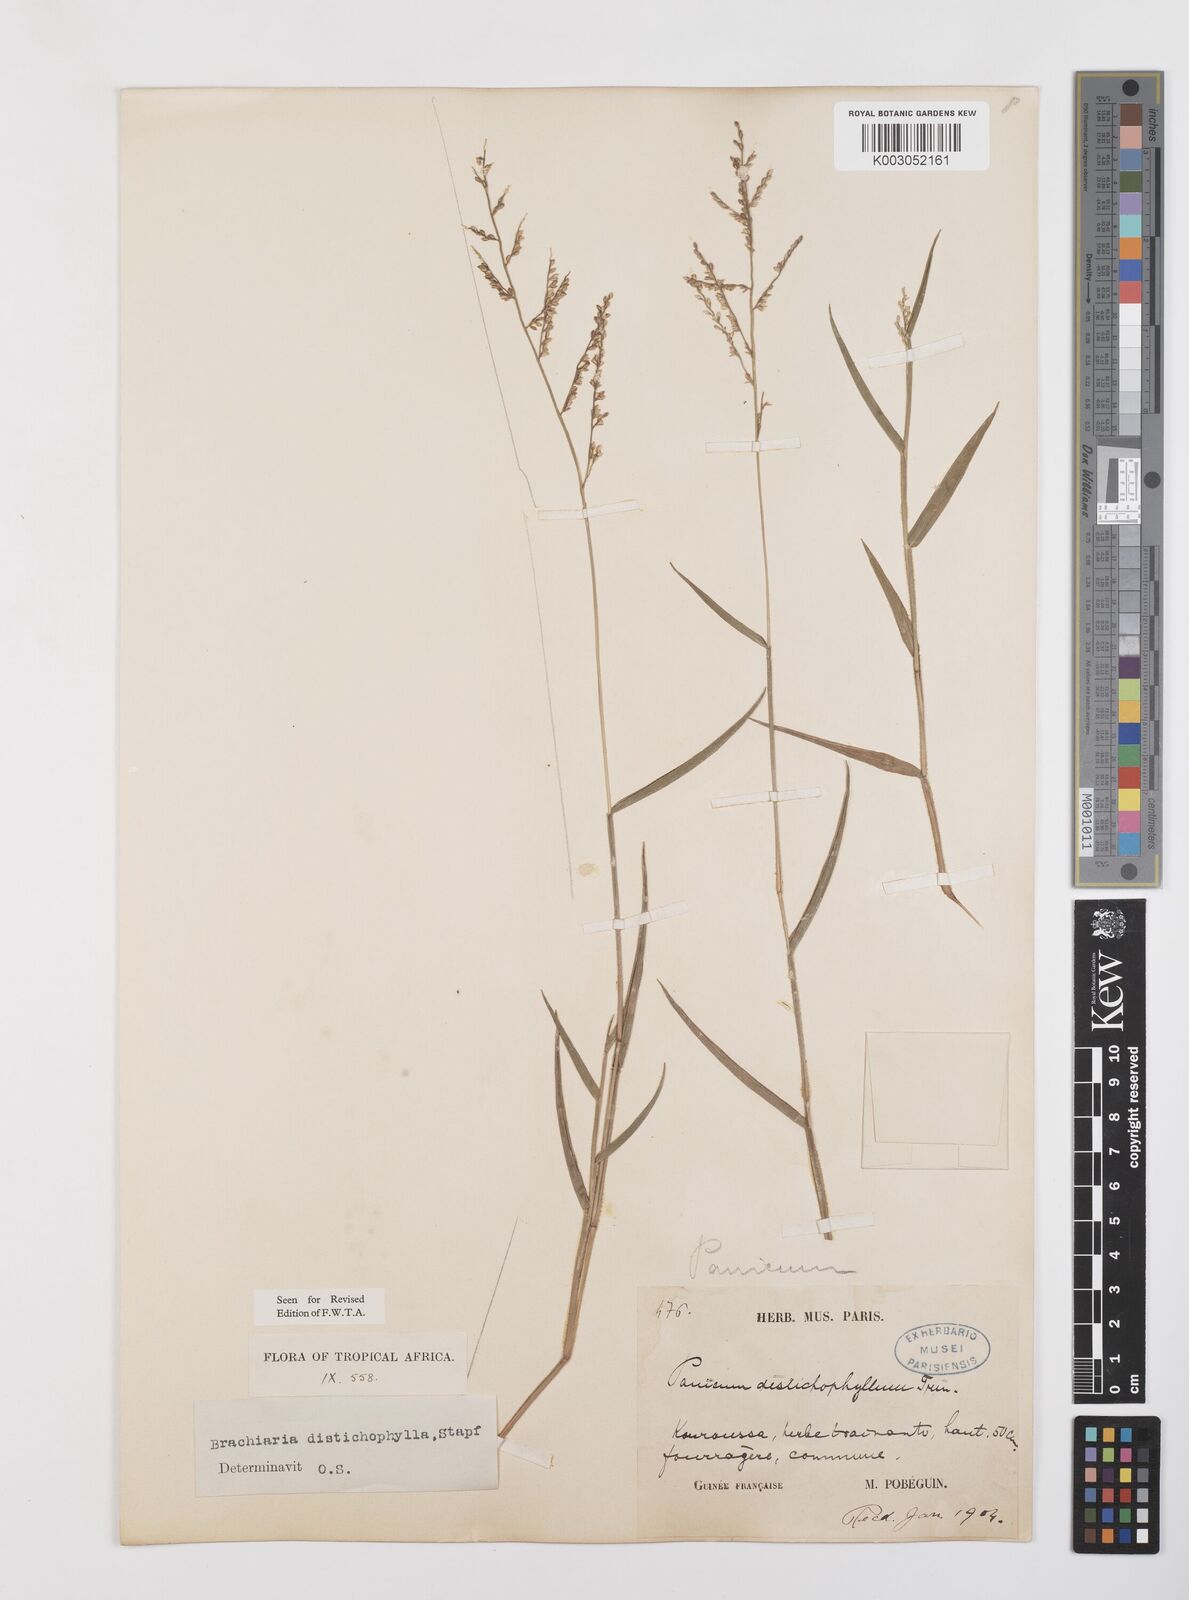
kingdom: Plantae
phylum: Tracheophyta
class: Liliopsida
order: Poales
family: Poaceae
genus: Urochloa
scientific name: Urochloa villosa
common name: Hairy signalgrass
